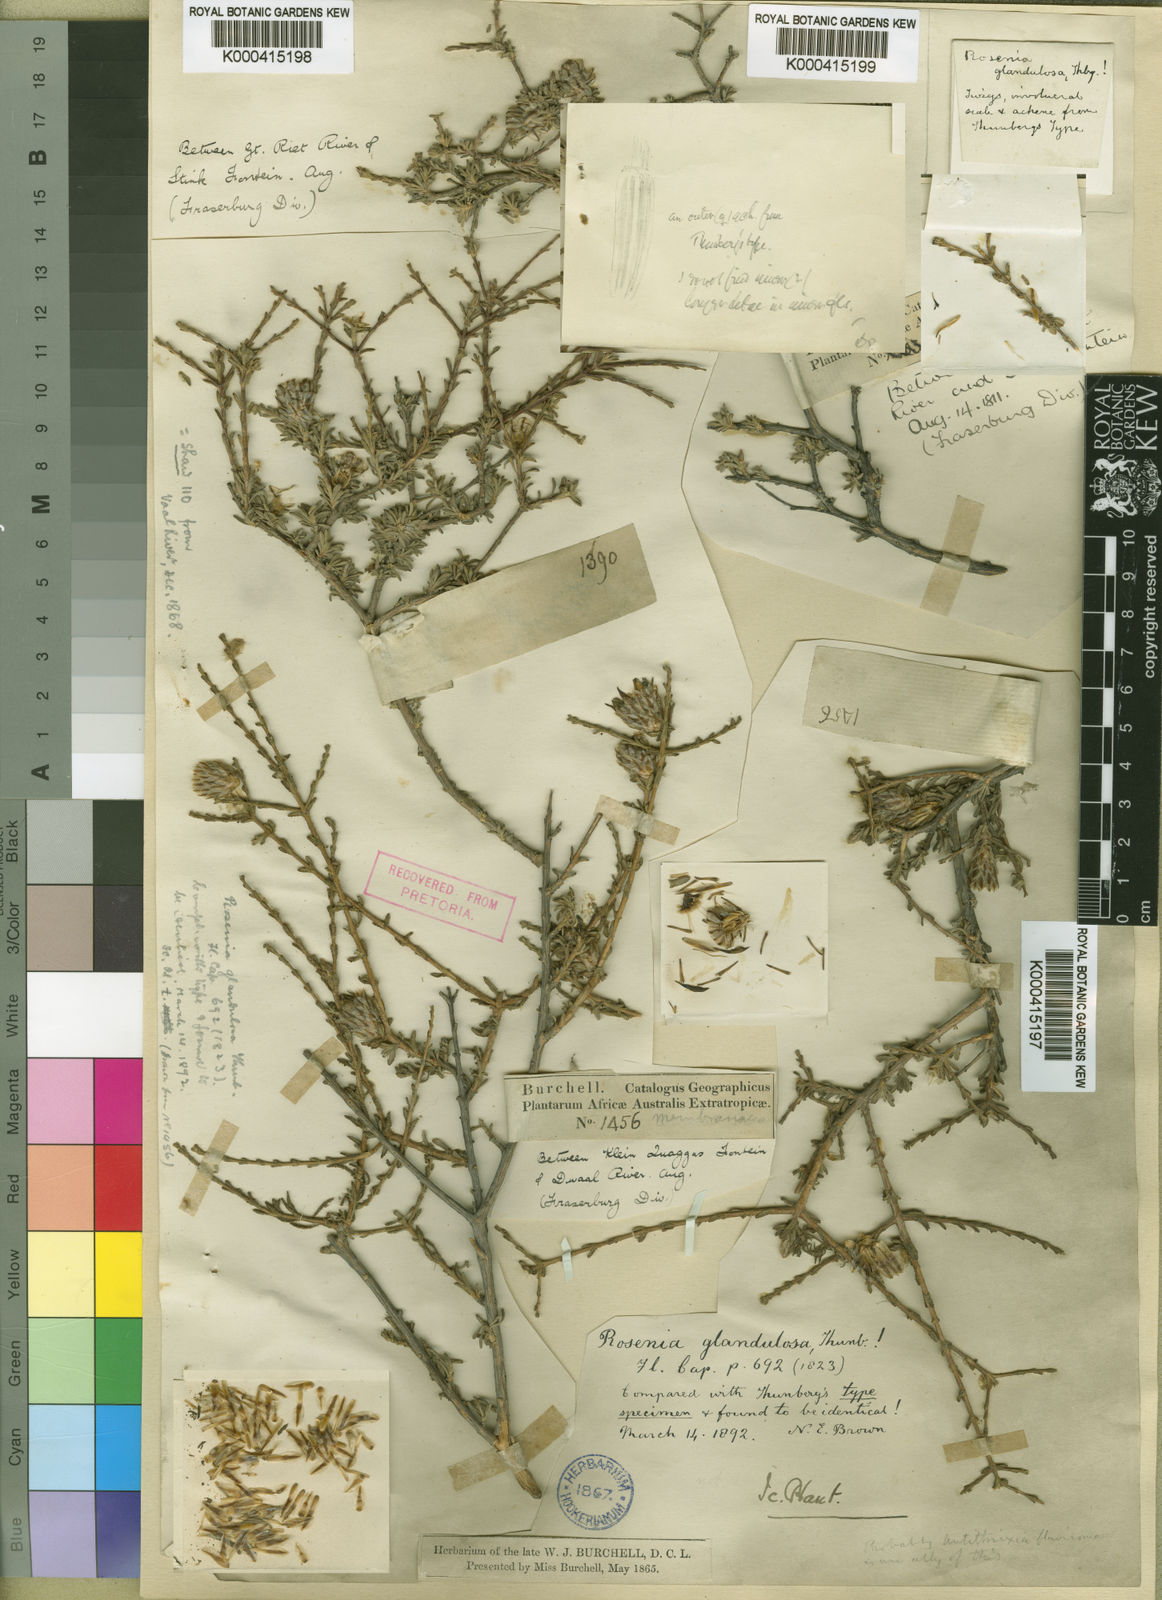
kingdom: Plantae
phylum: Tracheophyta
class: Magnoliopsida
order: Asterales
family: Asteraceae
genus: Oedera
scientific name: Oedera glandulosa
